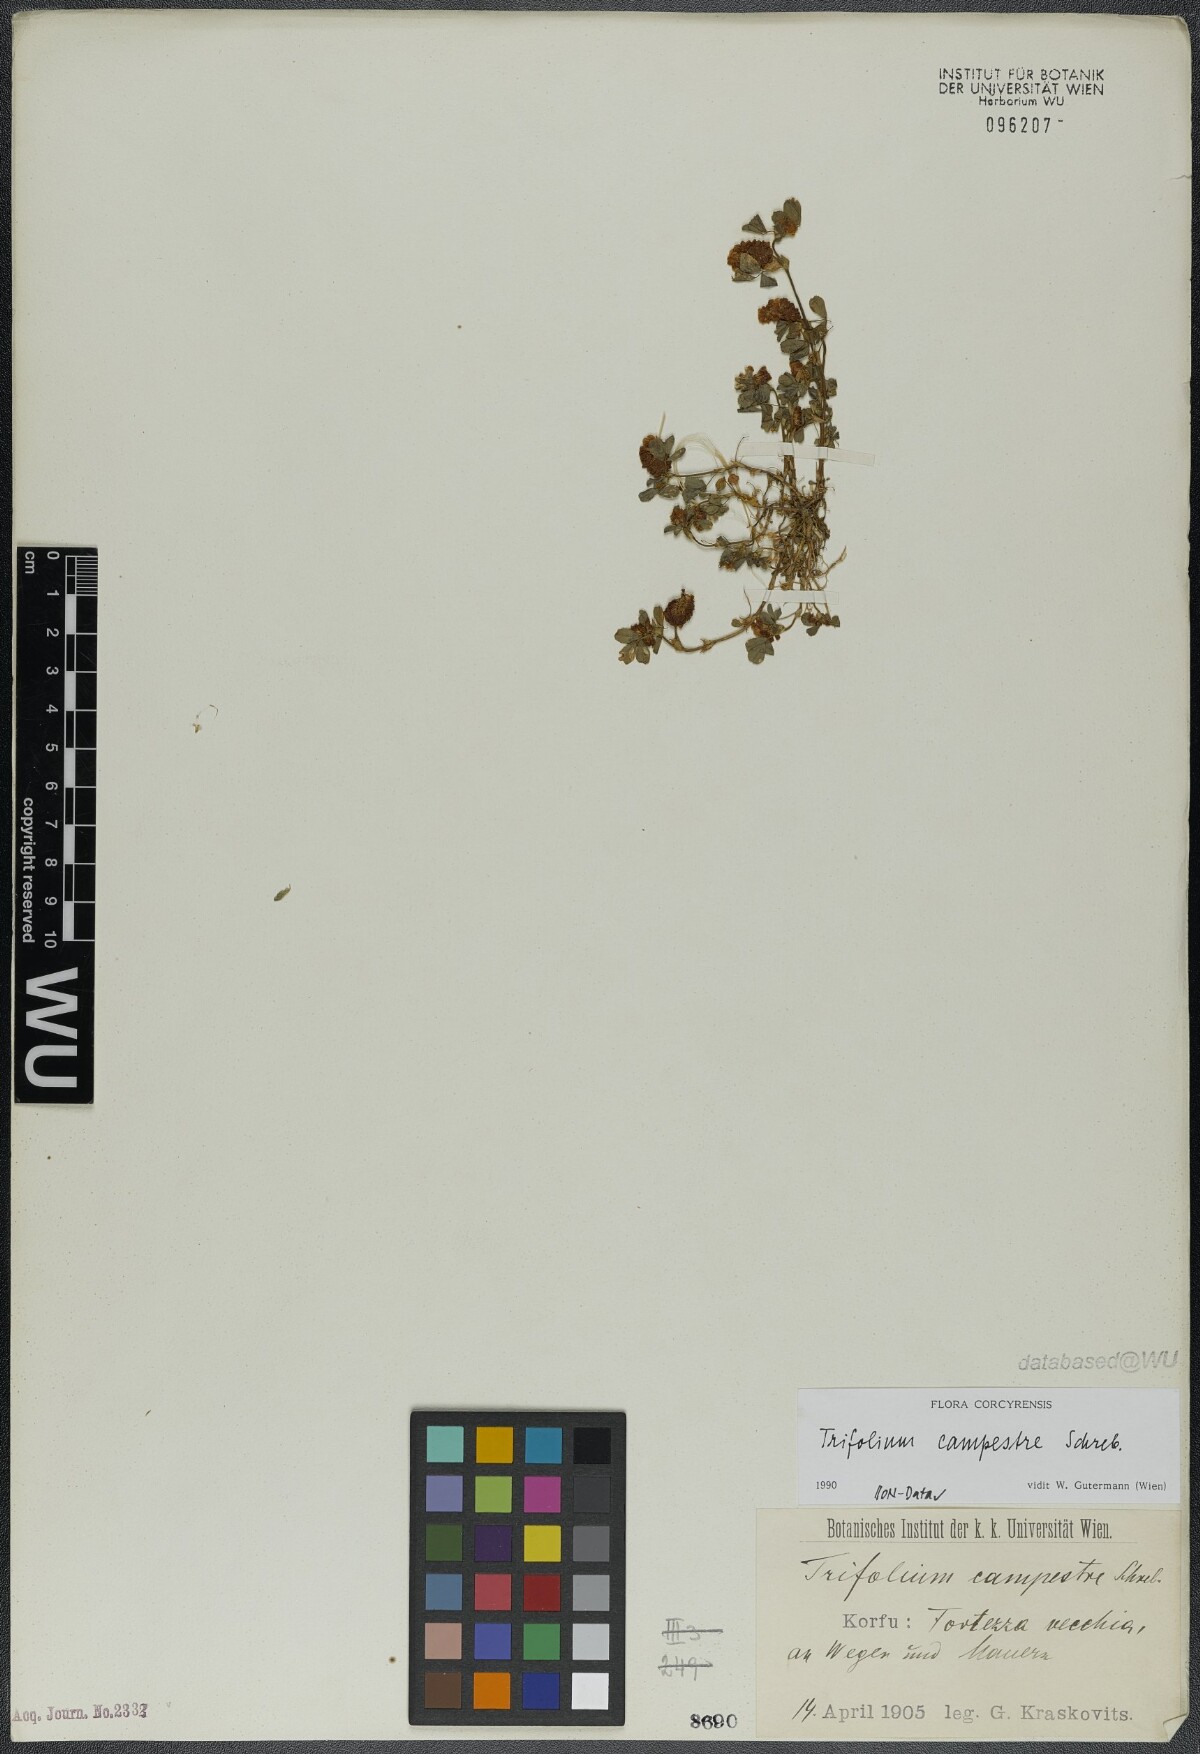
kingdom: Plantae
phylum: Tracheophyta
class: Magnoliopsida
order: Fabales
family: Fabaceae
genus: Trifolium
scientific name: Trifolium campestre
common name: Field clover
